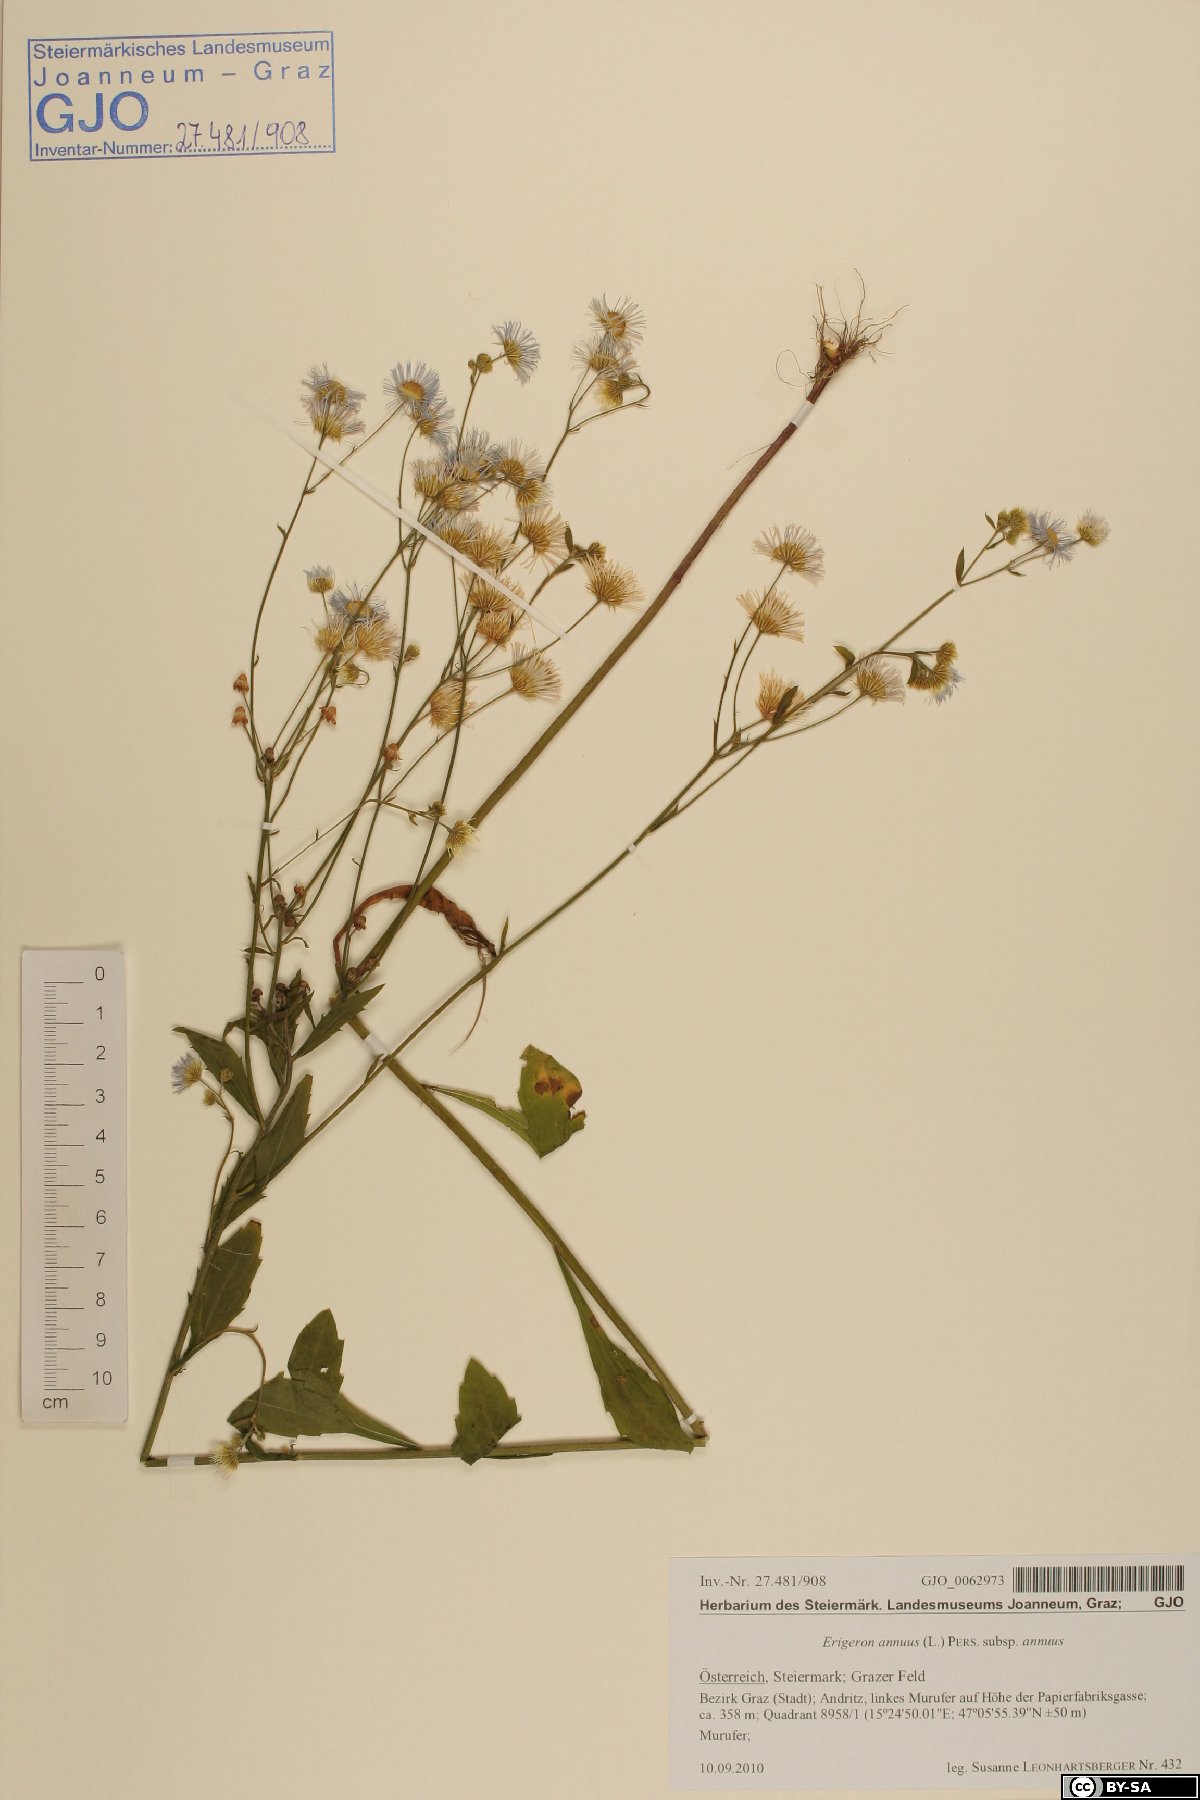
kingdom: Plantae
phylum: Tracheophyta
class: Magnoliopsida
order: Asterales
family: Asteraceae
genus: Erigeron
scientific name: Erigeron annuus
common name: Tall fleabane
